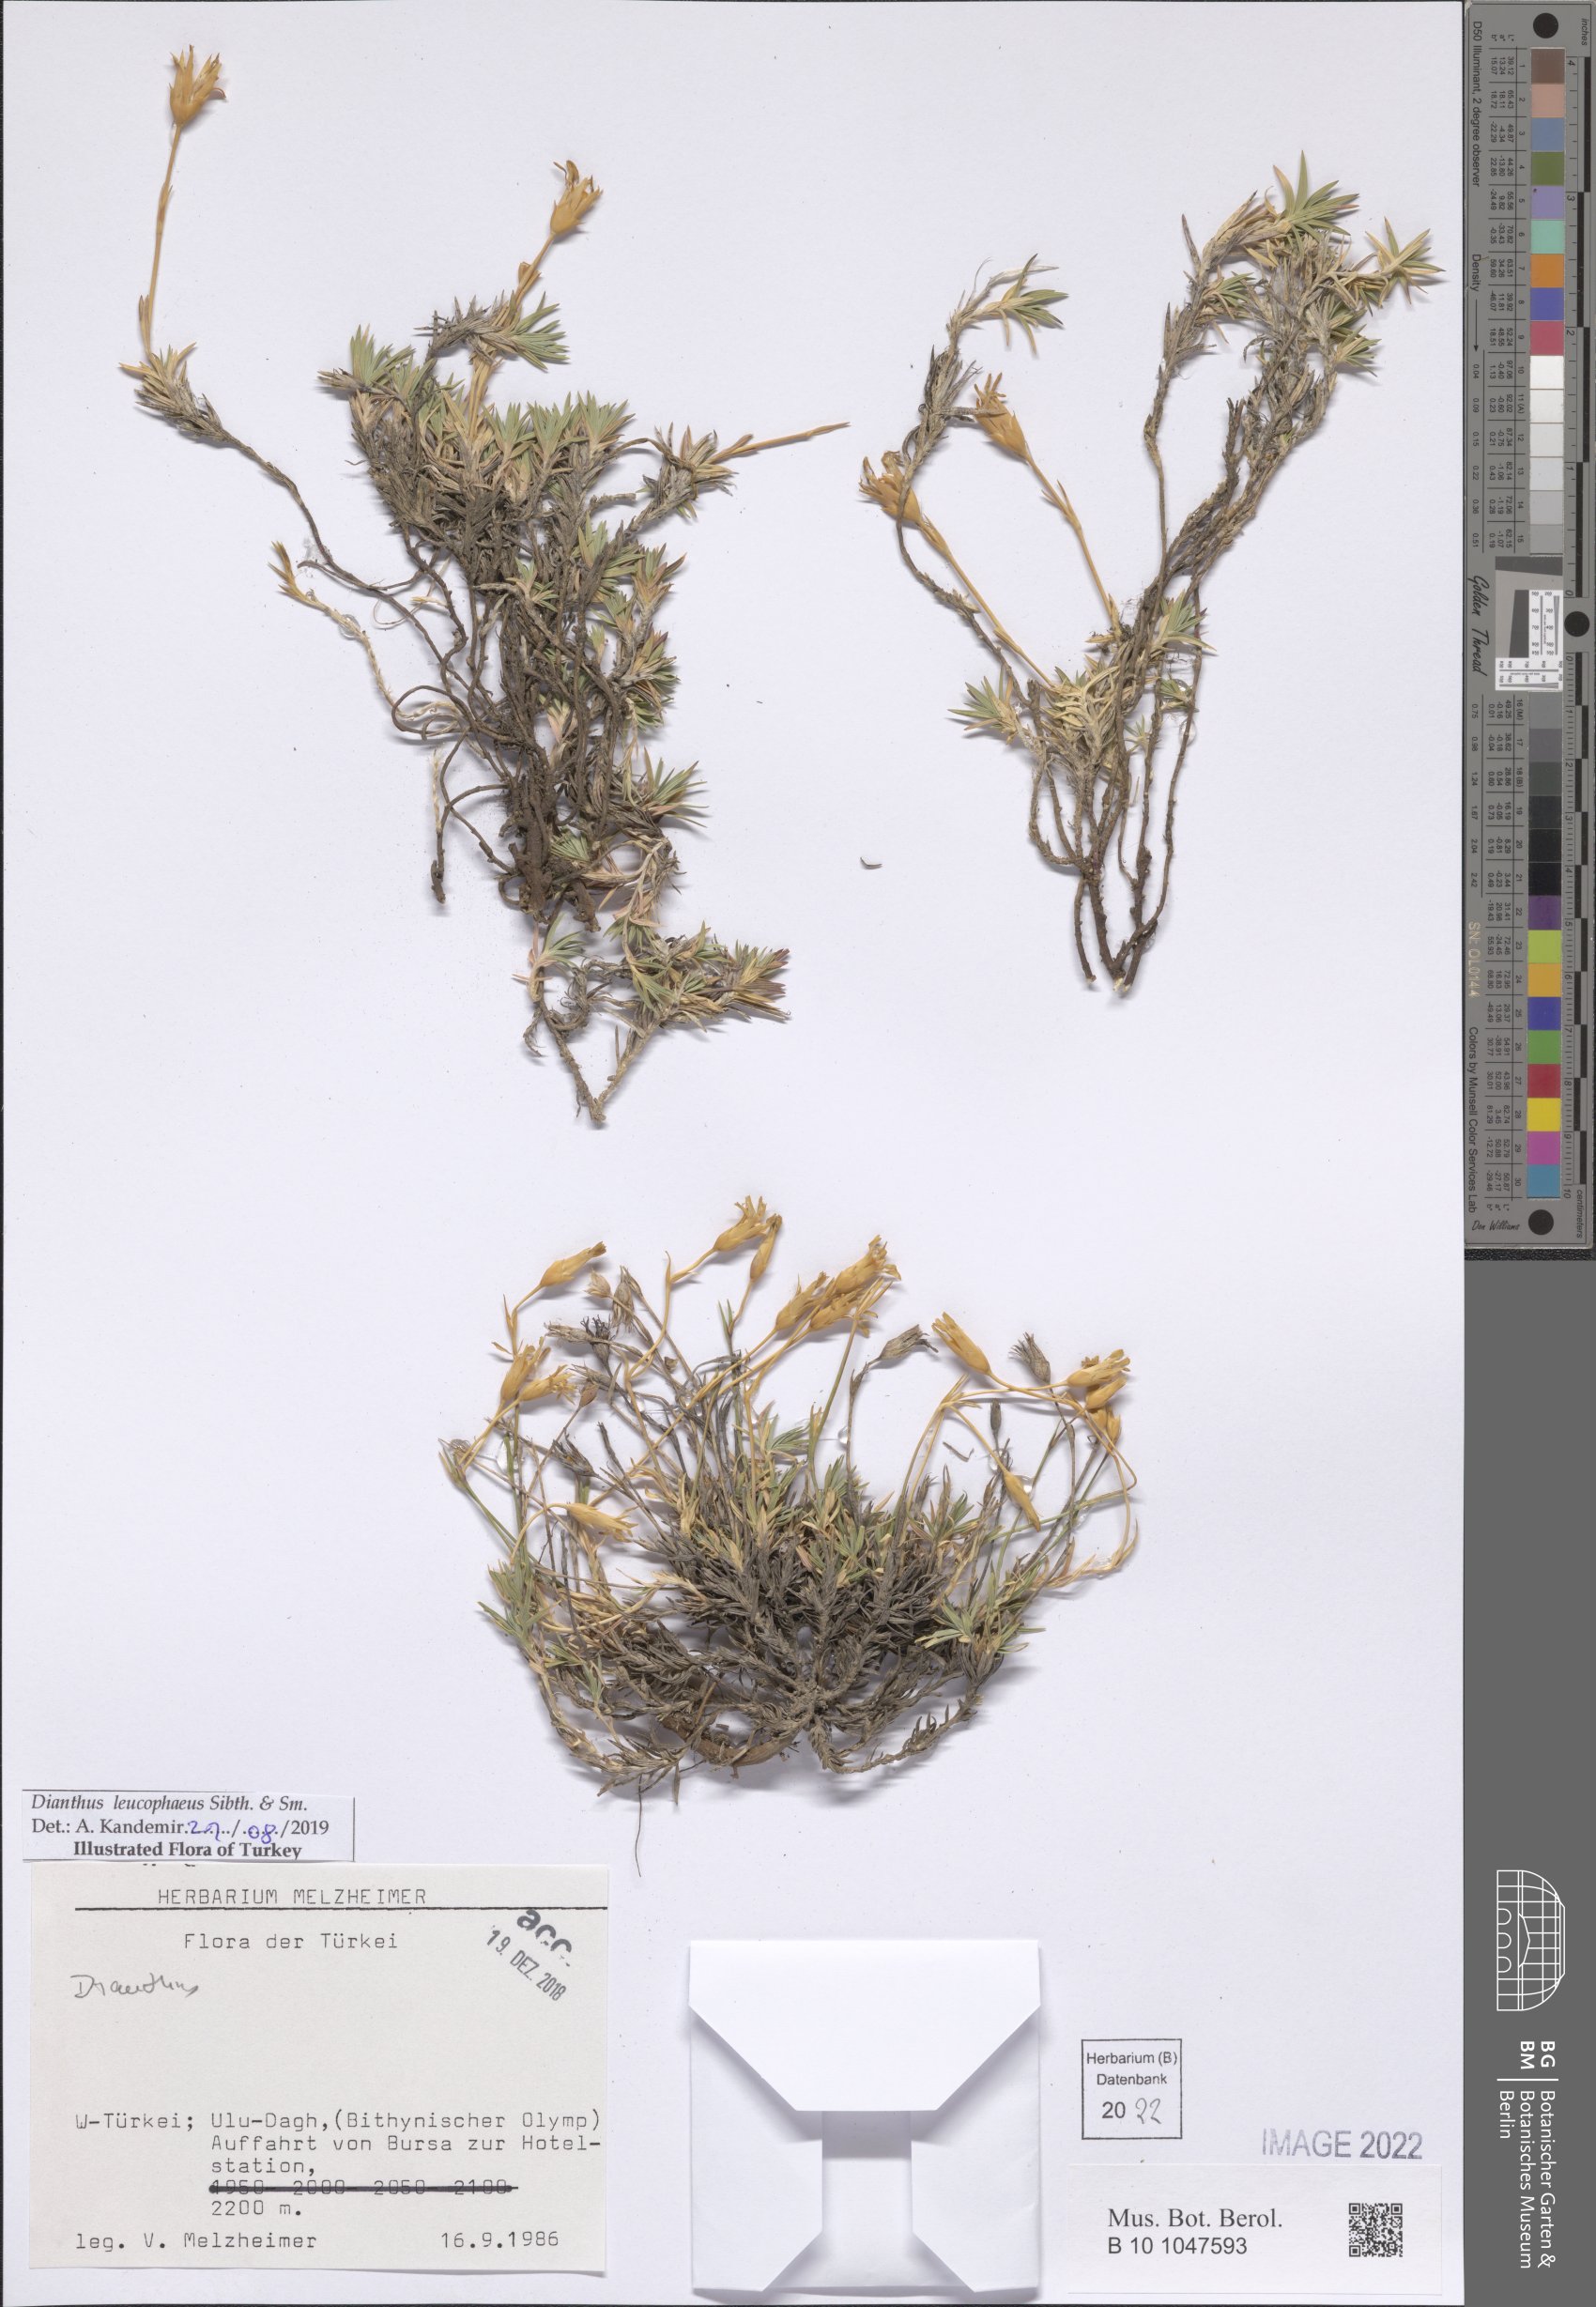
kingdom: Plantae
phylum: Tracheophyta
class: Magnoliopsida
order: Caryophyllales
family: Caryophyllaceae
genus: Dianthus
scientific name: Dianthus leucophaeus
